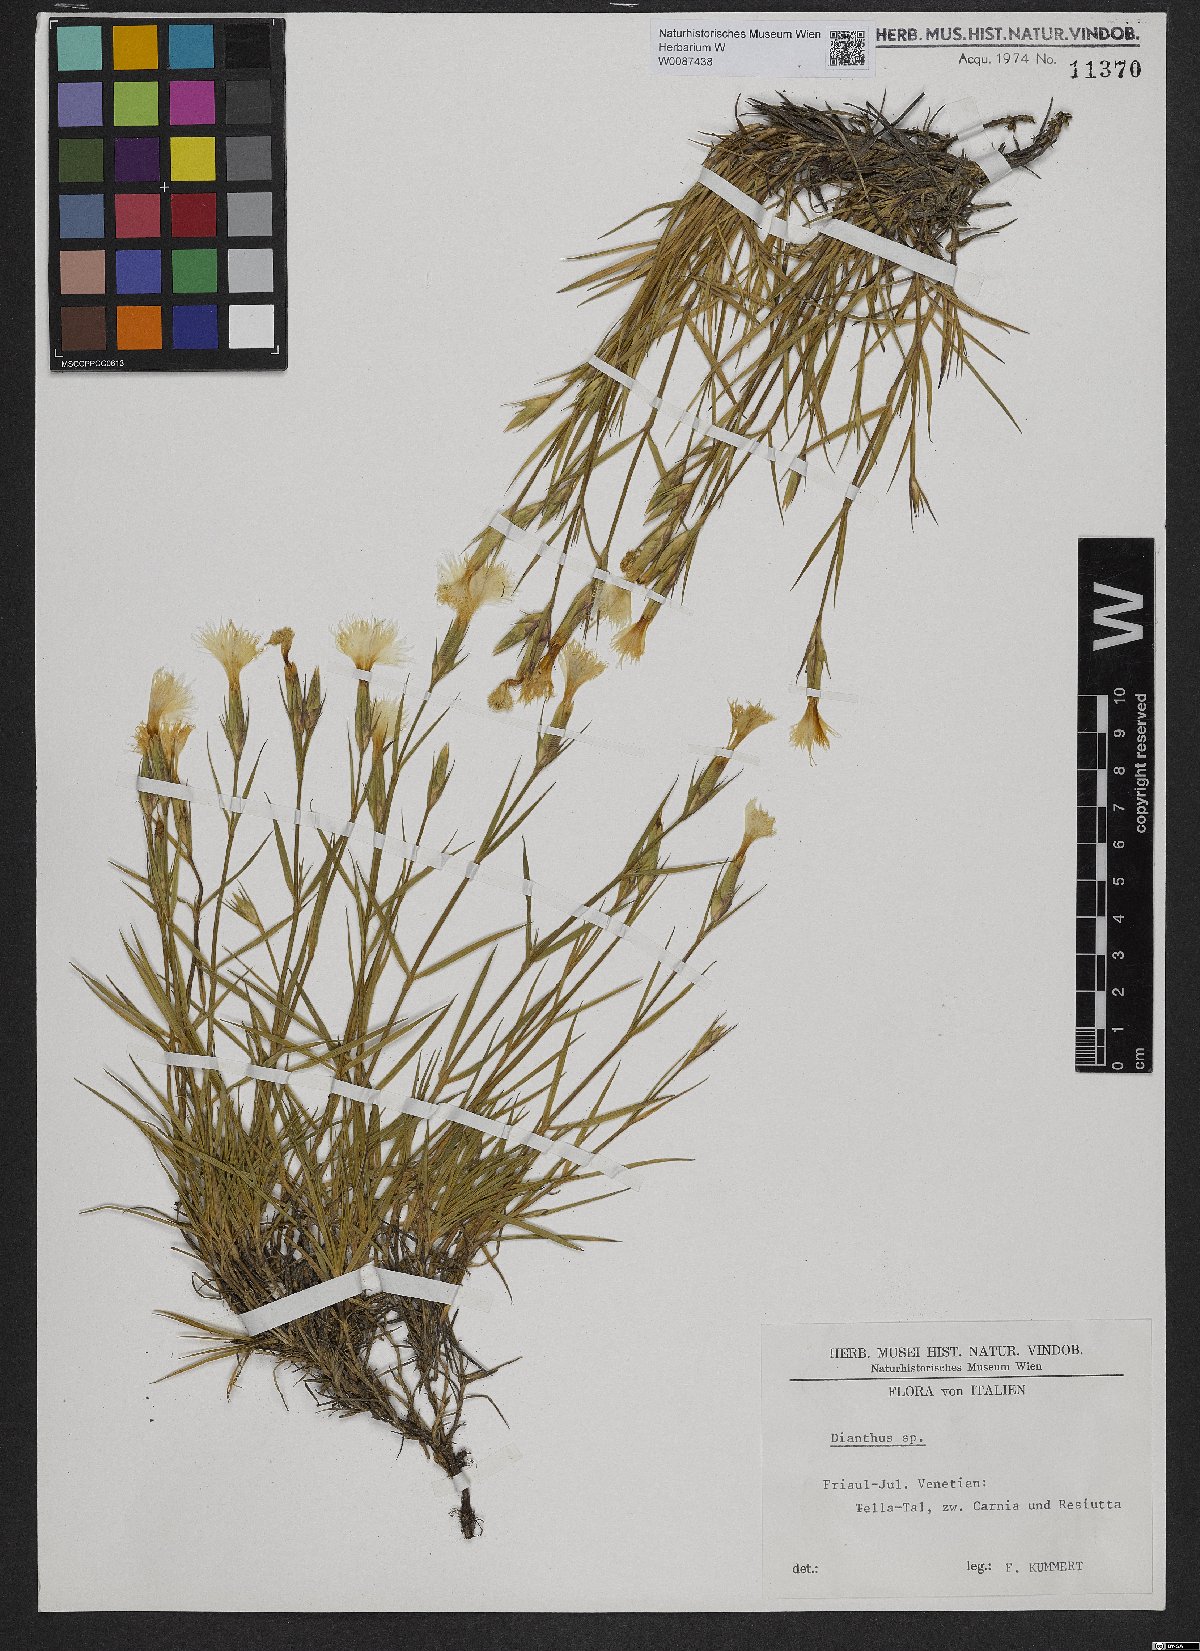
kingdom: Plantae
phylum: Tracheophyta
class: Magnoliopsida
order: Caryophyllales
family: Caryophyllaceae
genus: Dianthus
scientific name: Dianthus
